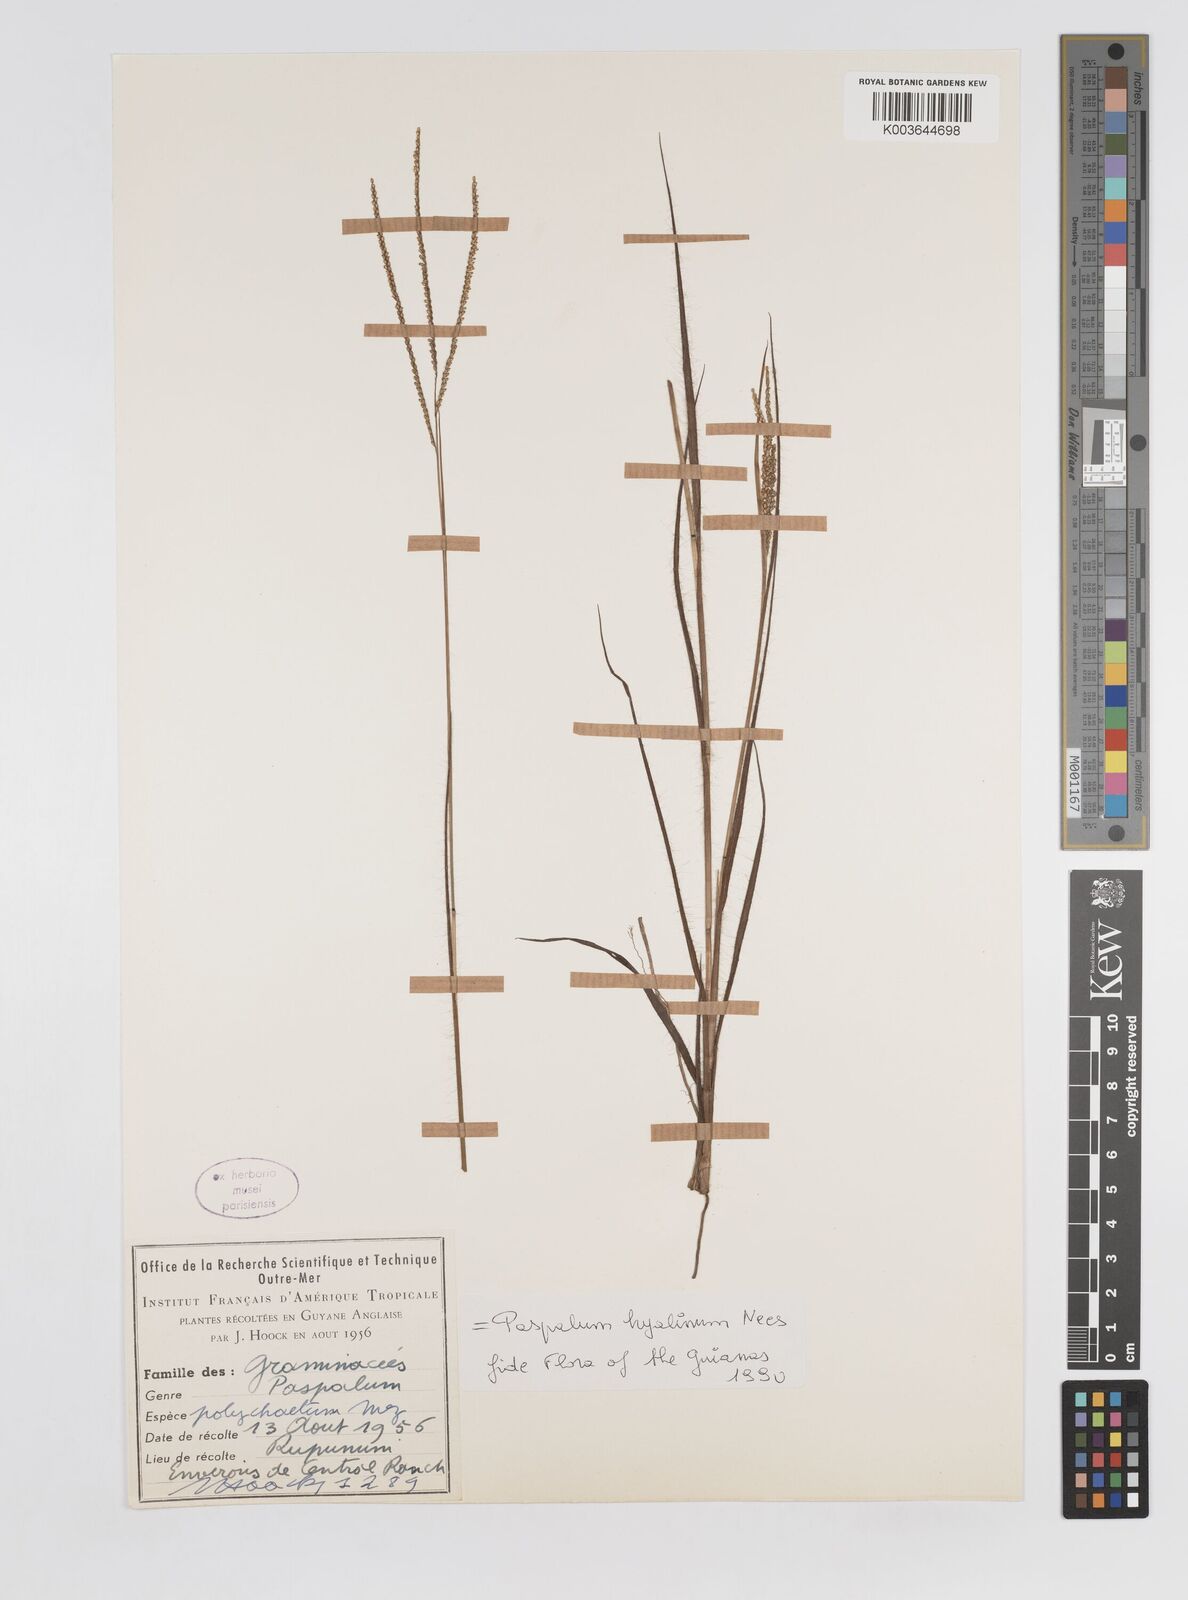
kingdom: Plantae
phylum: Tracheophyta
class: Liliopsida
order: Poales
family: Poaceae
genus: Paspalum
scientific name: Paspalum hyalinum
